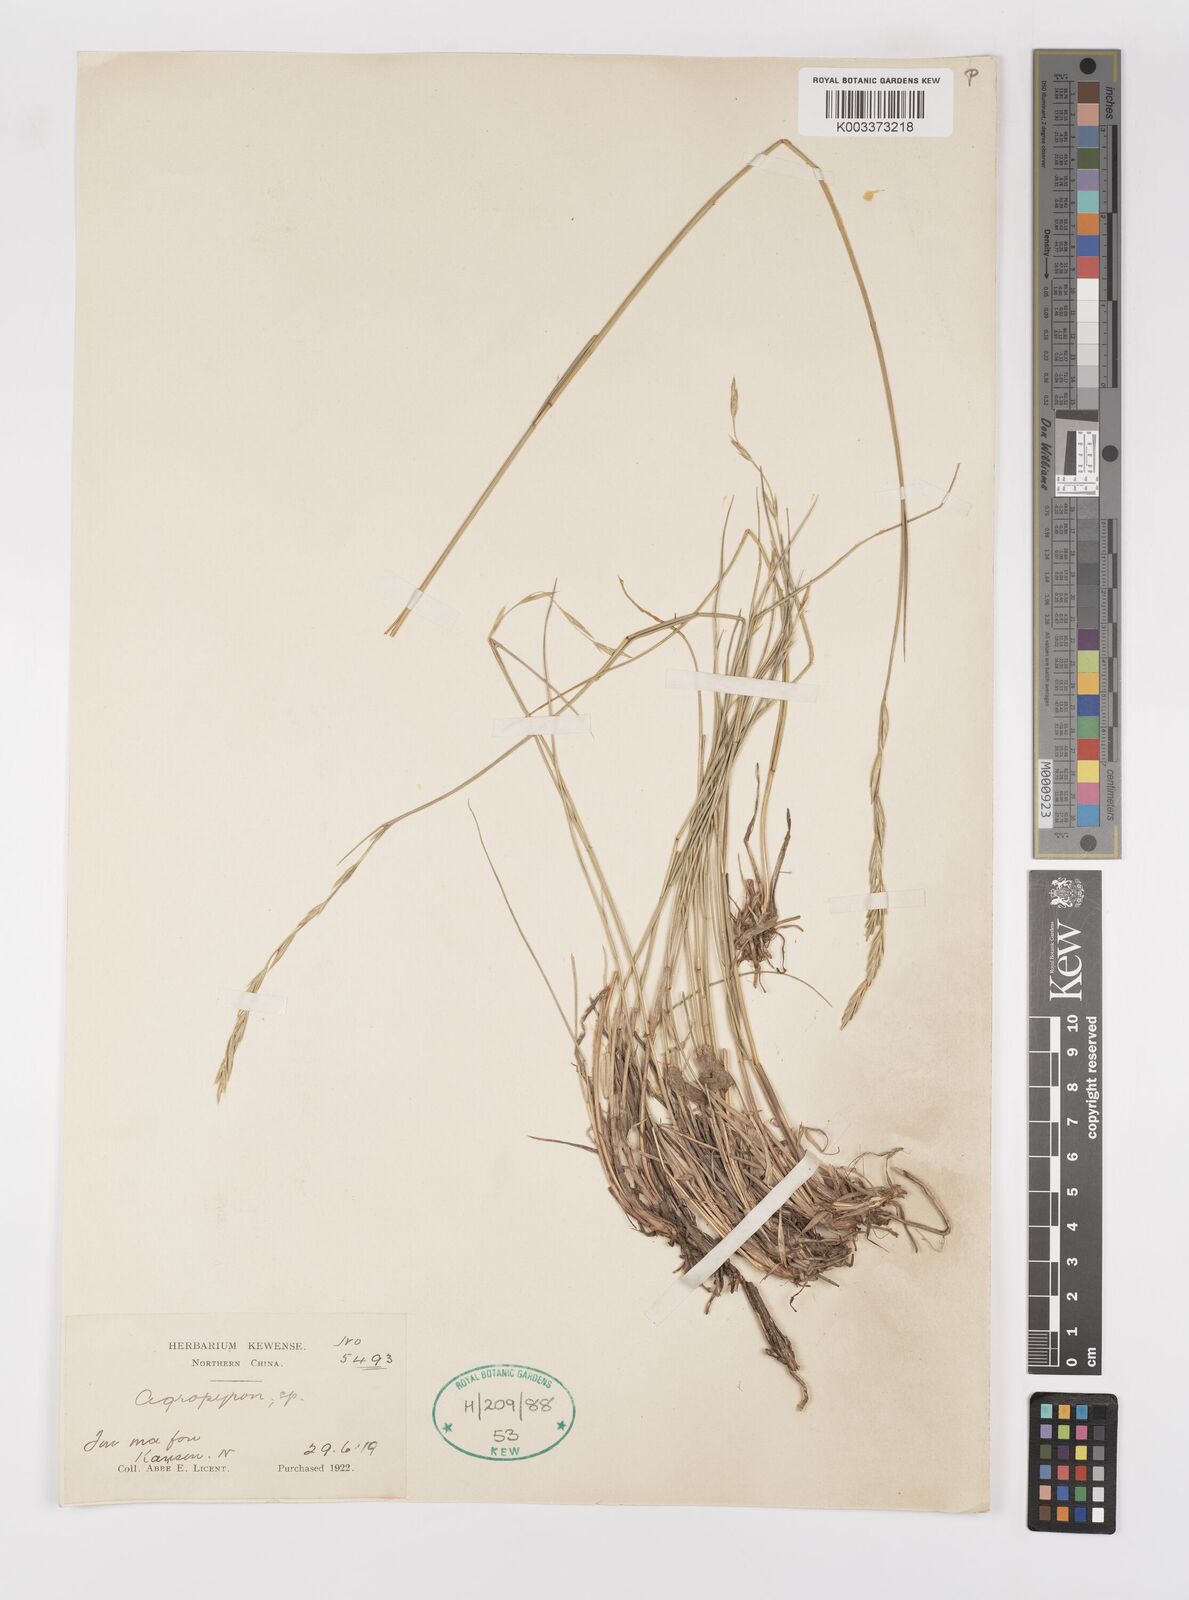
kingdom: Plantae
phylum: Tracheophyta
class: Liliopsida
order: Poales
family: Poaceae
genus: Elymus
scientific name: Elymus
